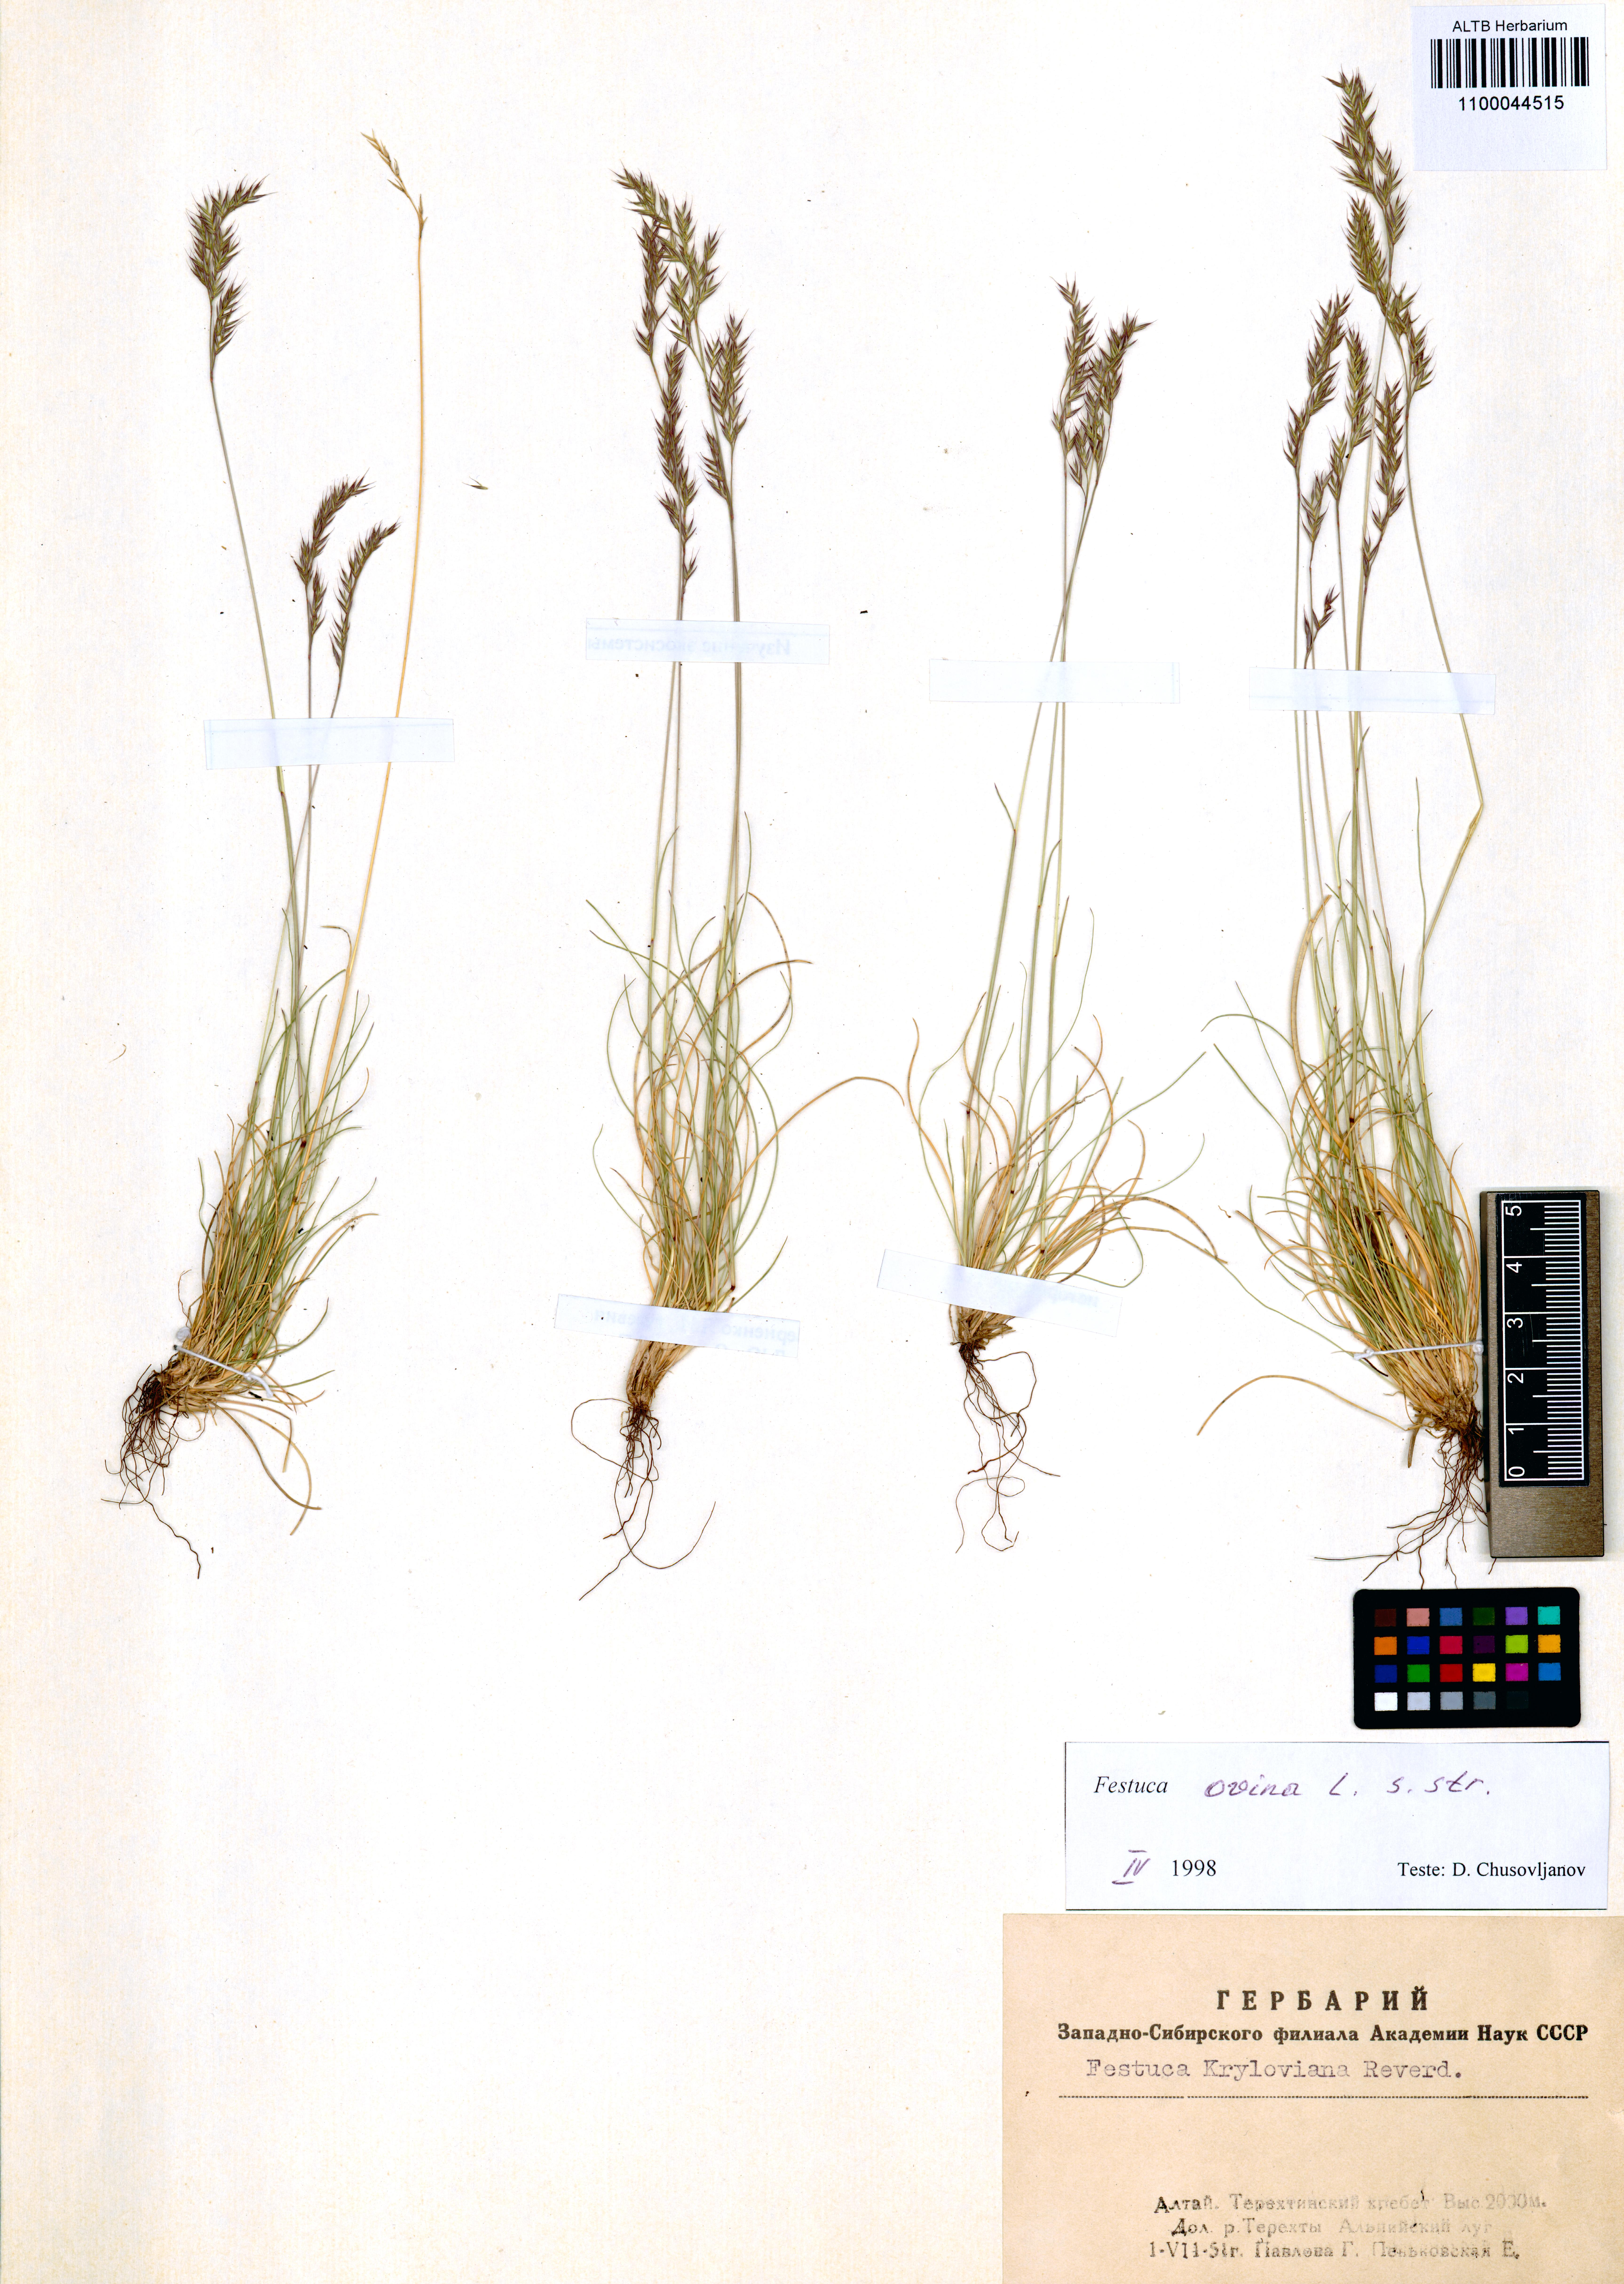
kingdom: Plantae
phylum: Tracheophyta
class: Liliopsida
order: Poales
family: Poaceae
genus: Festuca
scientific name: Festuca ovina
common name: Sheep fescue
